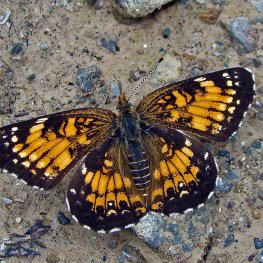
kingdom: Animalia
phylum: Arthropoda
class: Insecta
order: Lepidoptera
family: Nymphalidae
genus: Chlosyne
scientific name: Chlosyne harrisii
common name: Harris's Checkerspot
